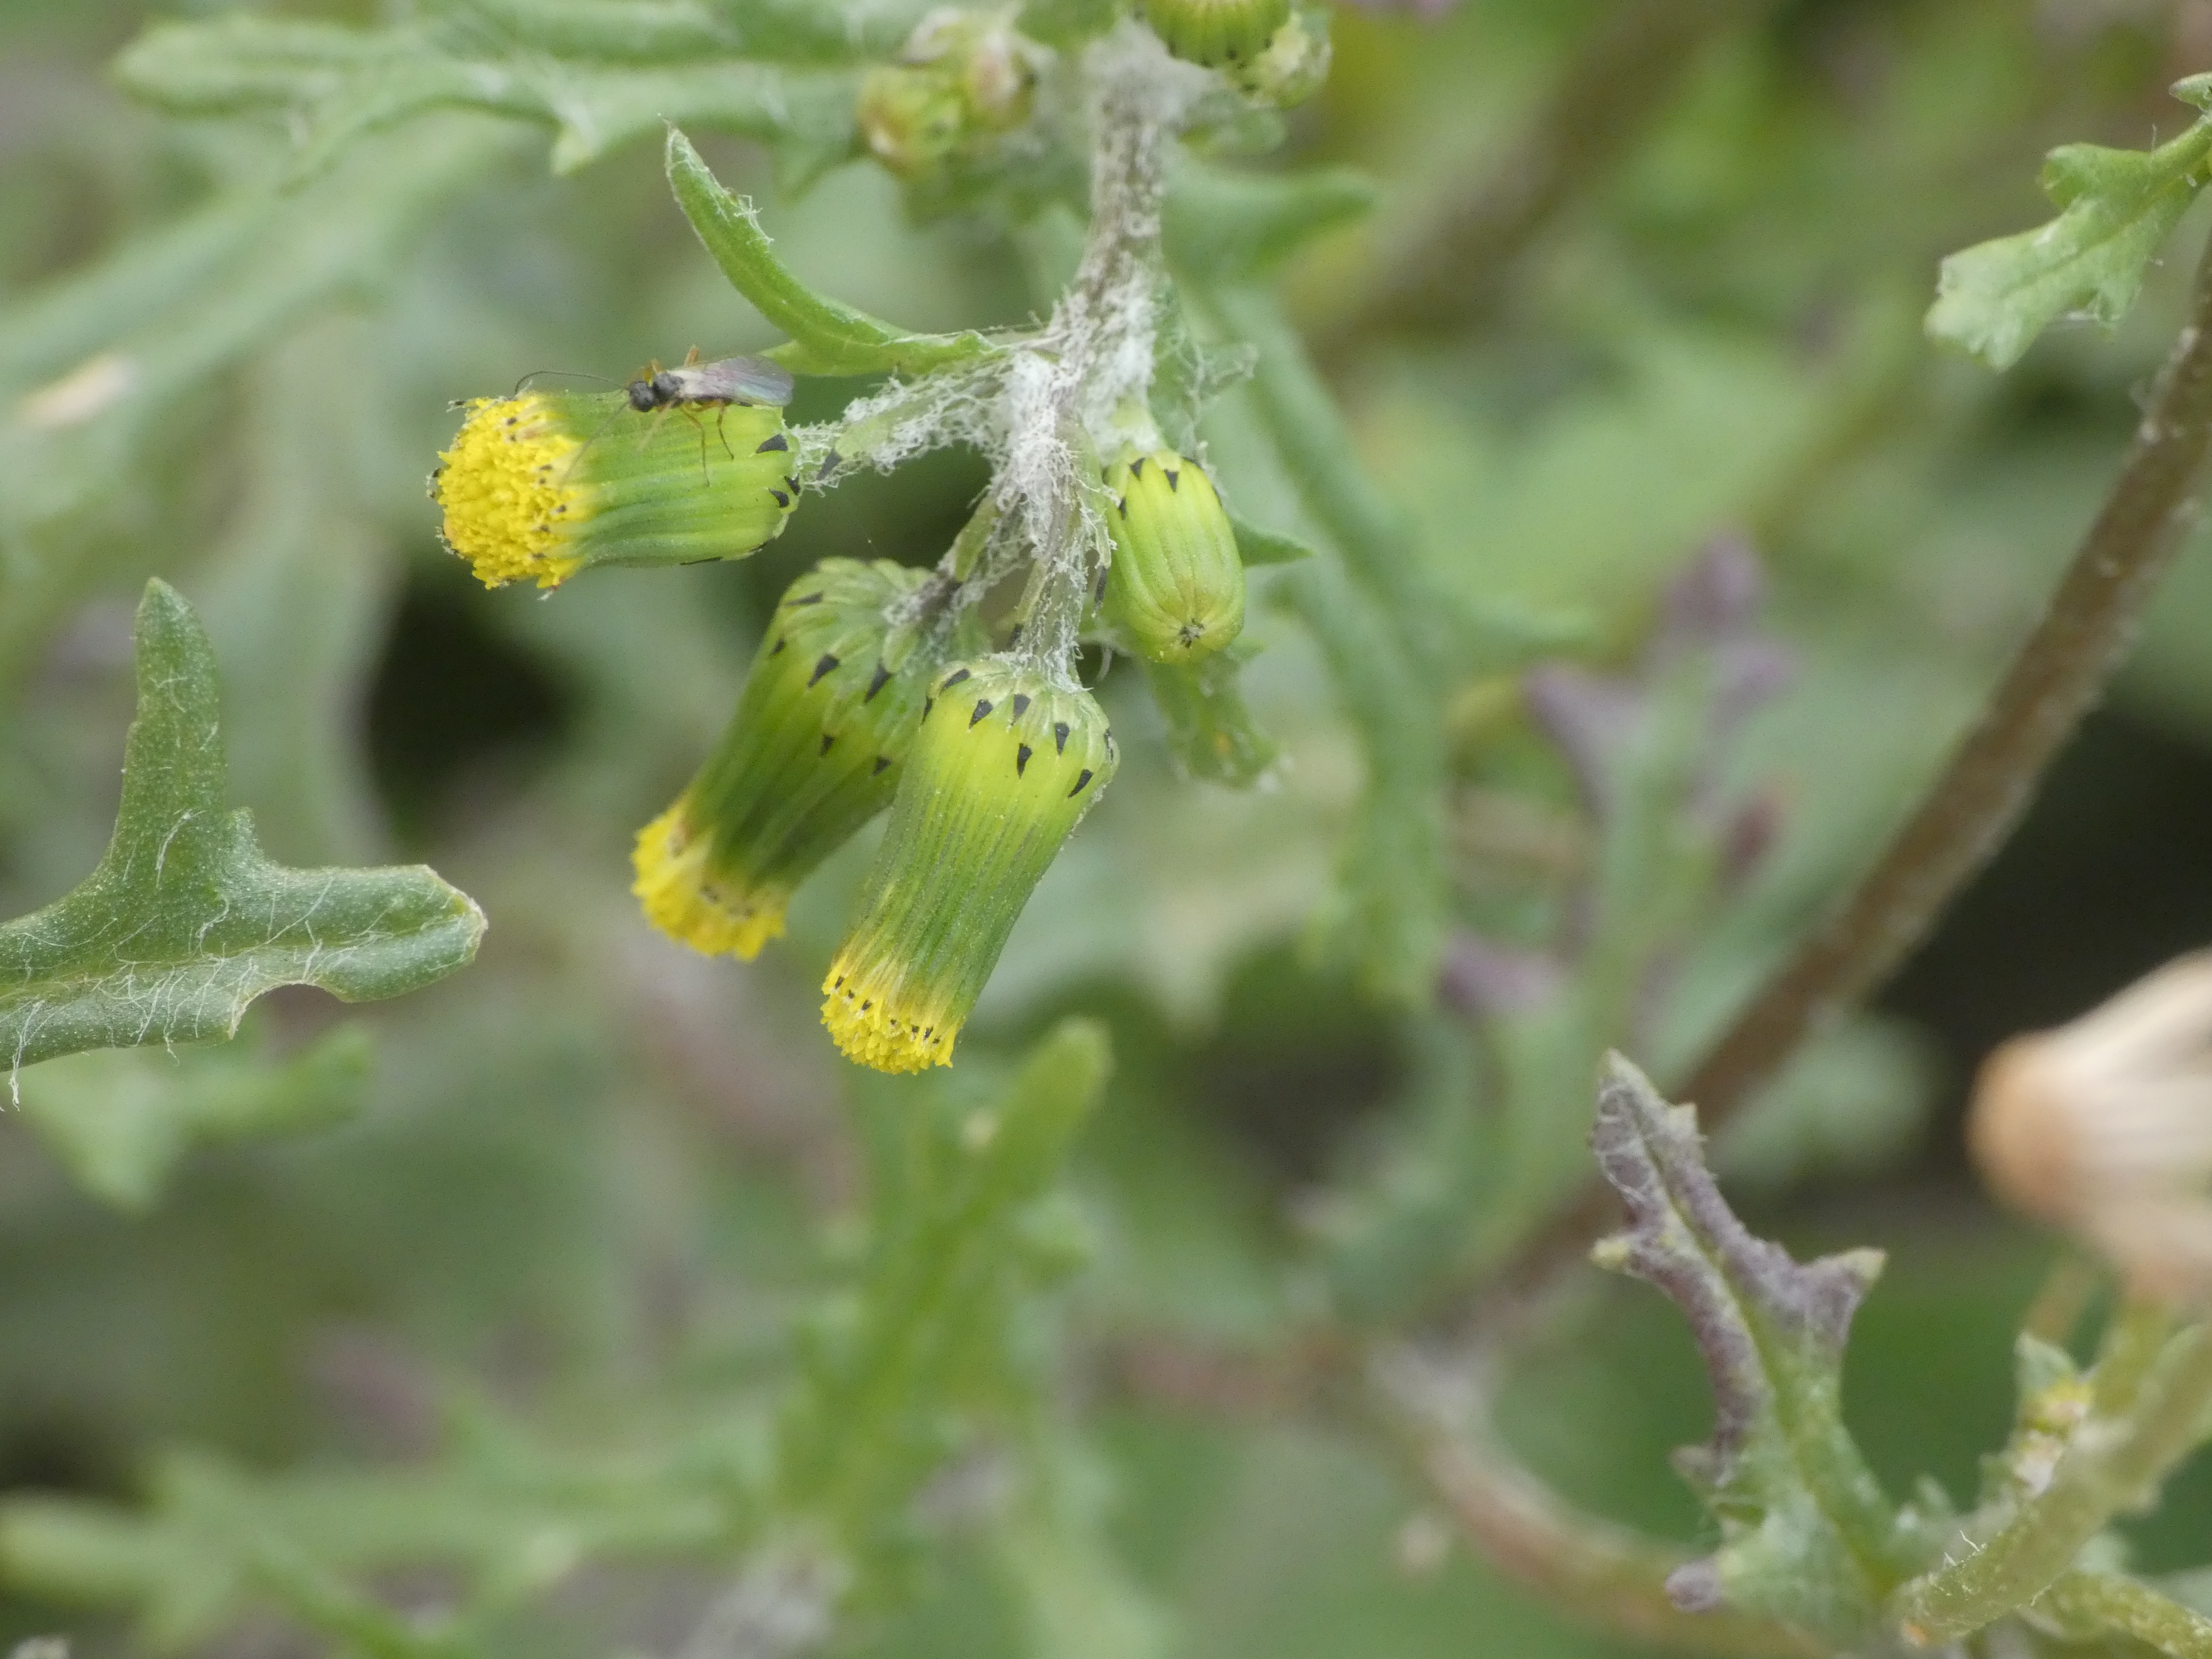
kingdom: Plantae
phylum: Tracheophyta
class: Magnoliopsida
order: Asterales
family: Asteraceae
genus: Senecio
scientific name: Senecio vulgaris
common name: Almindelig brandbæger
